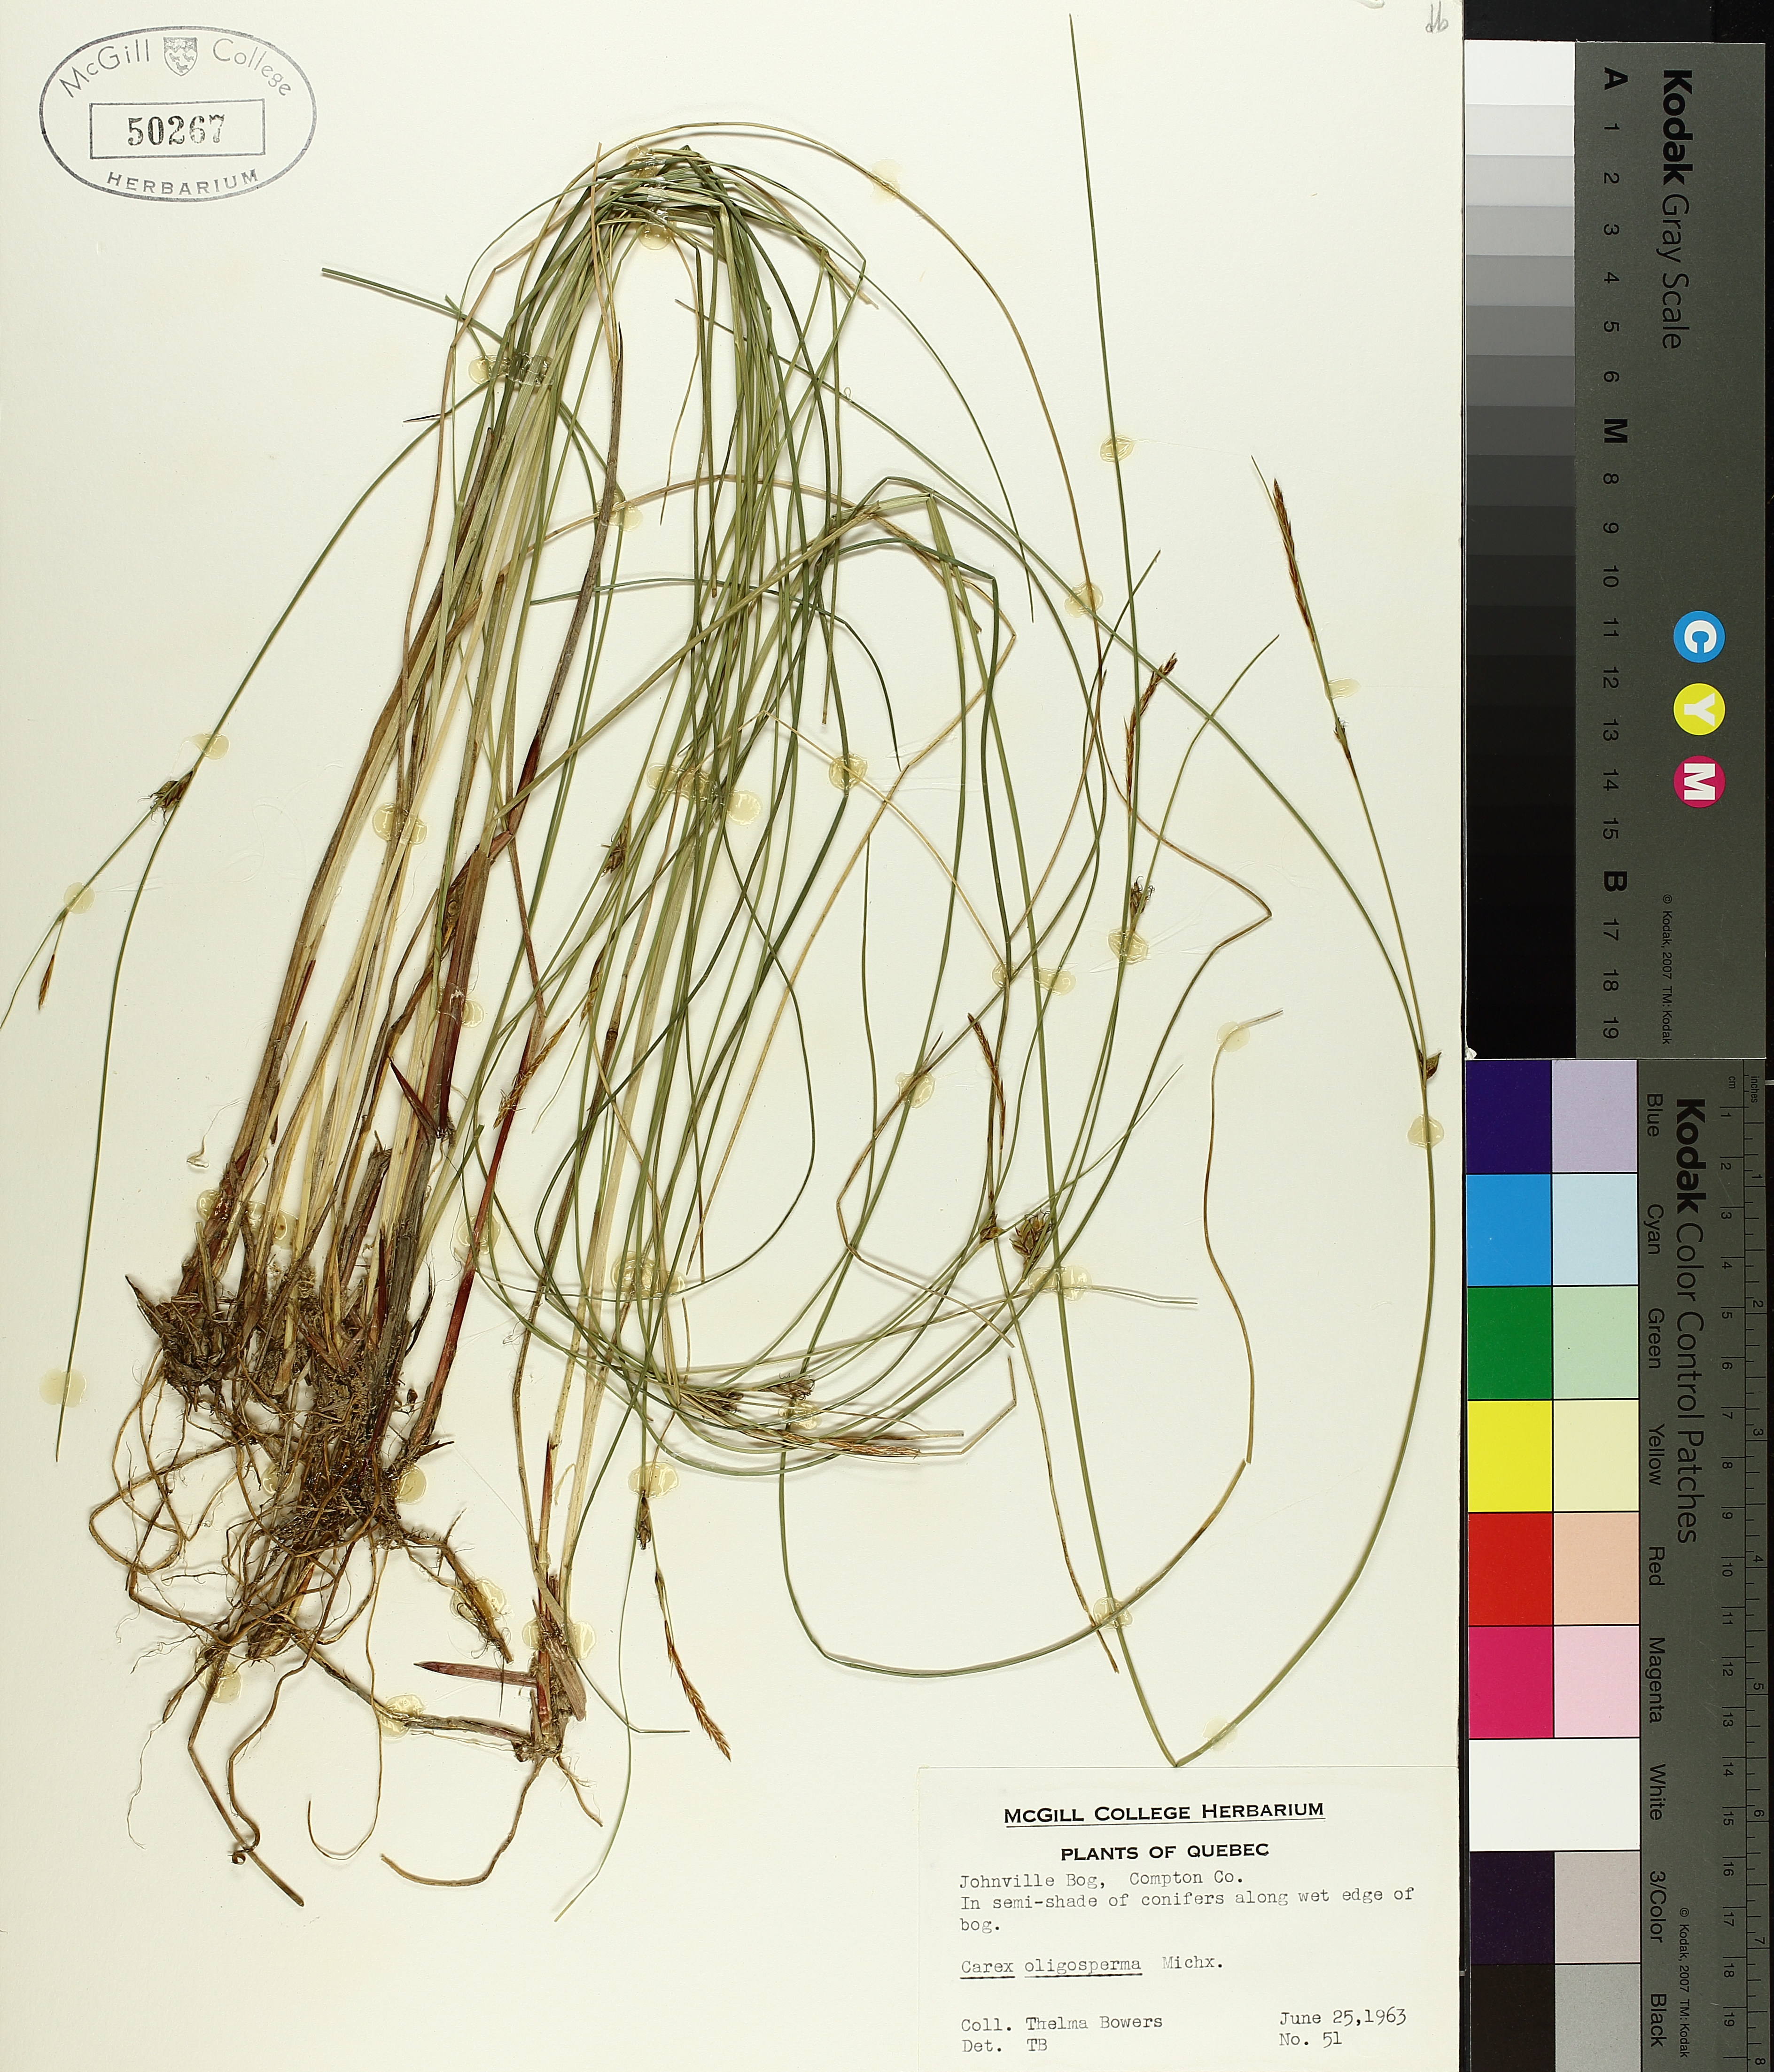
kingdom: Plantae
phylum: Tracheophyta
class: Liliopsida
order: Poales
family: Cyperaceae
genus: Carex
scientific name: Carex oligosperma
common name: Few-seed sedge
